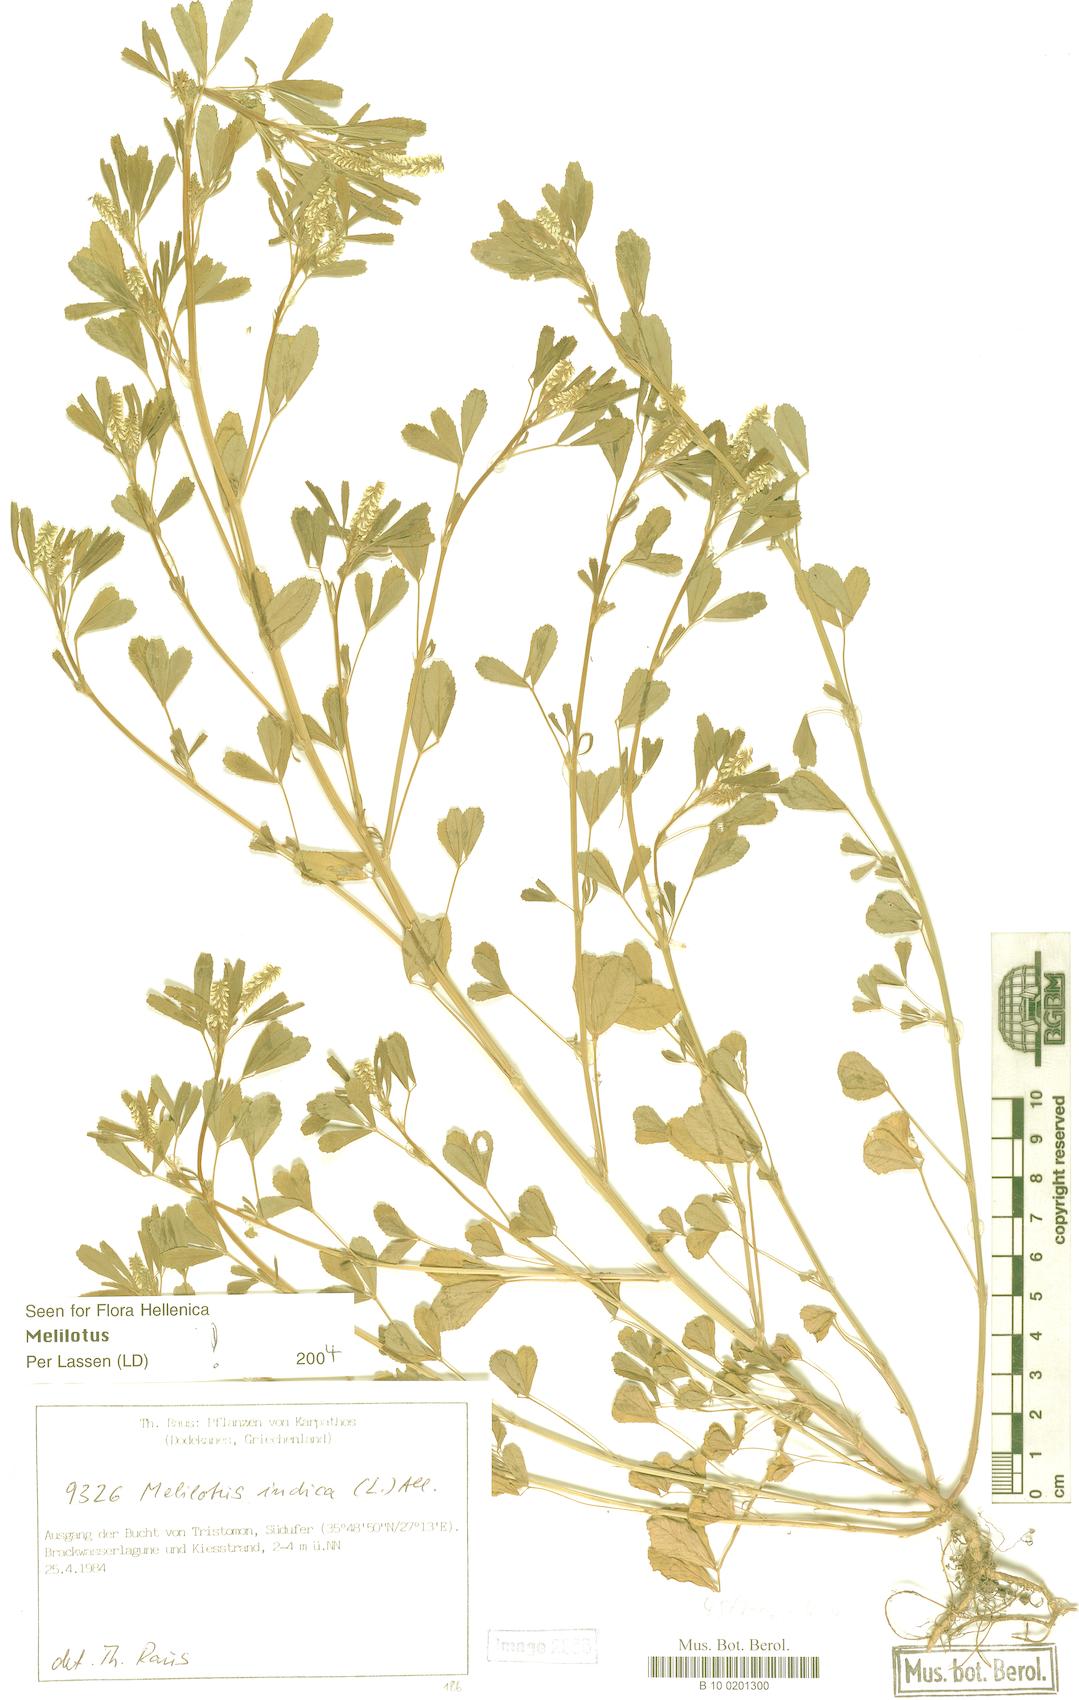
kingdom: Plantae
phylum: Tracheophyta
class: Magnoliopsida
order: Fabales
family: Fabaceae
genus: Melilotus
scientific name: Melilotus indicus
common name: Small melilot
